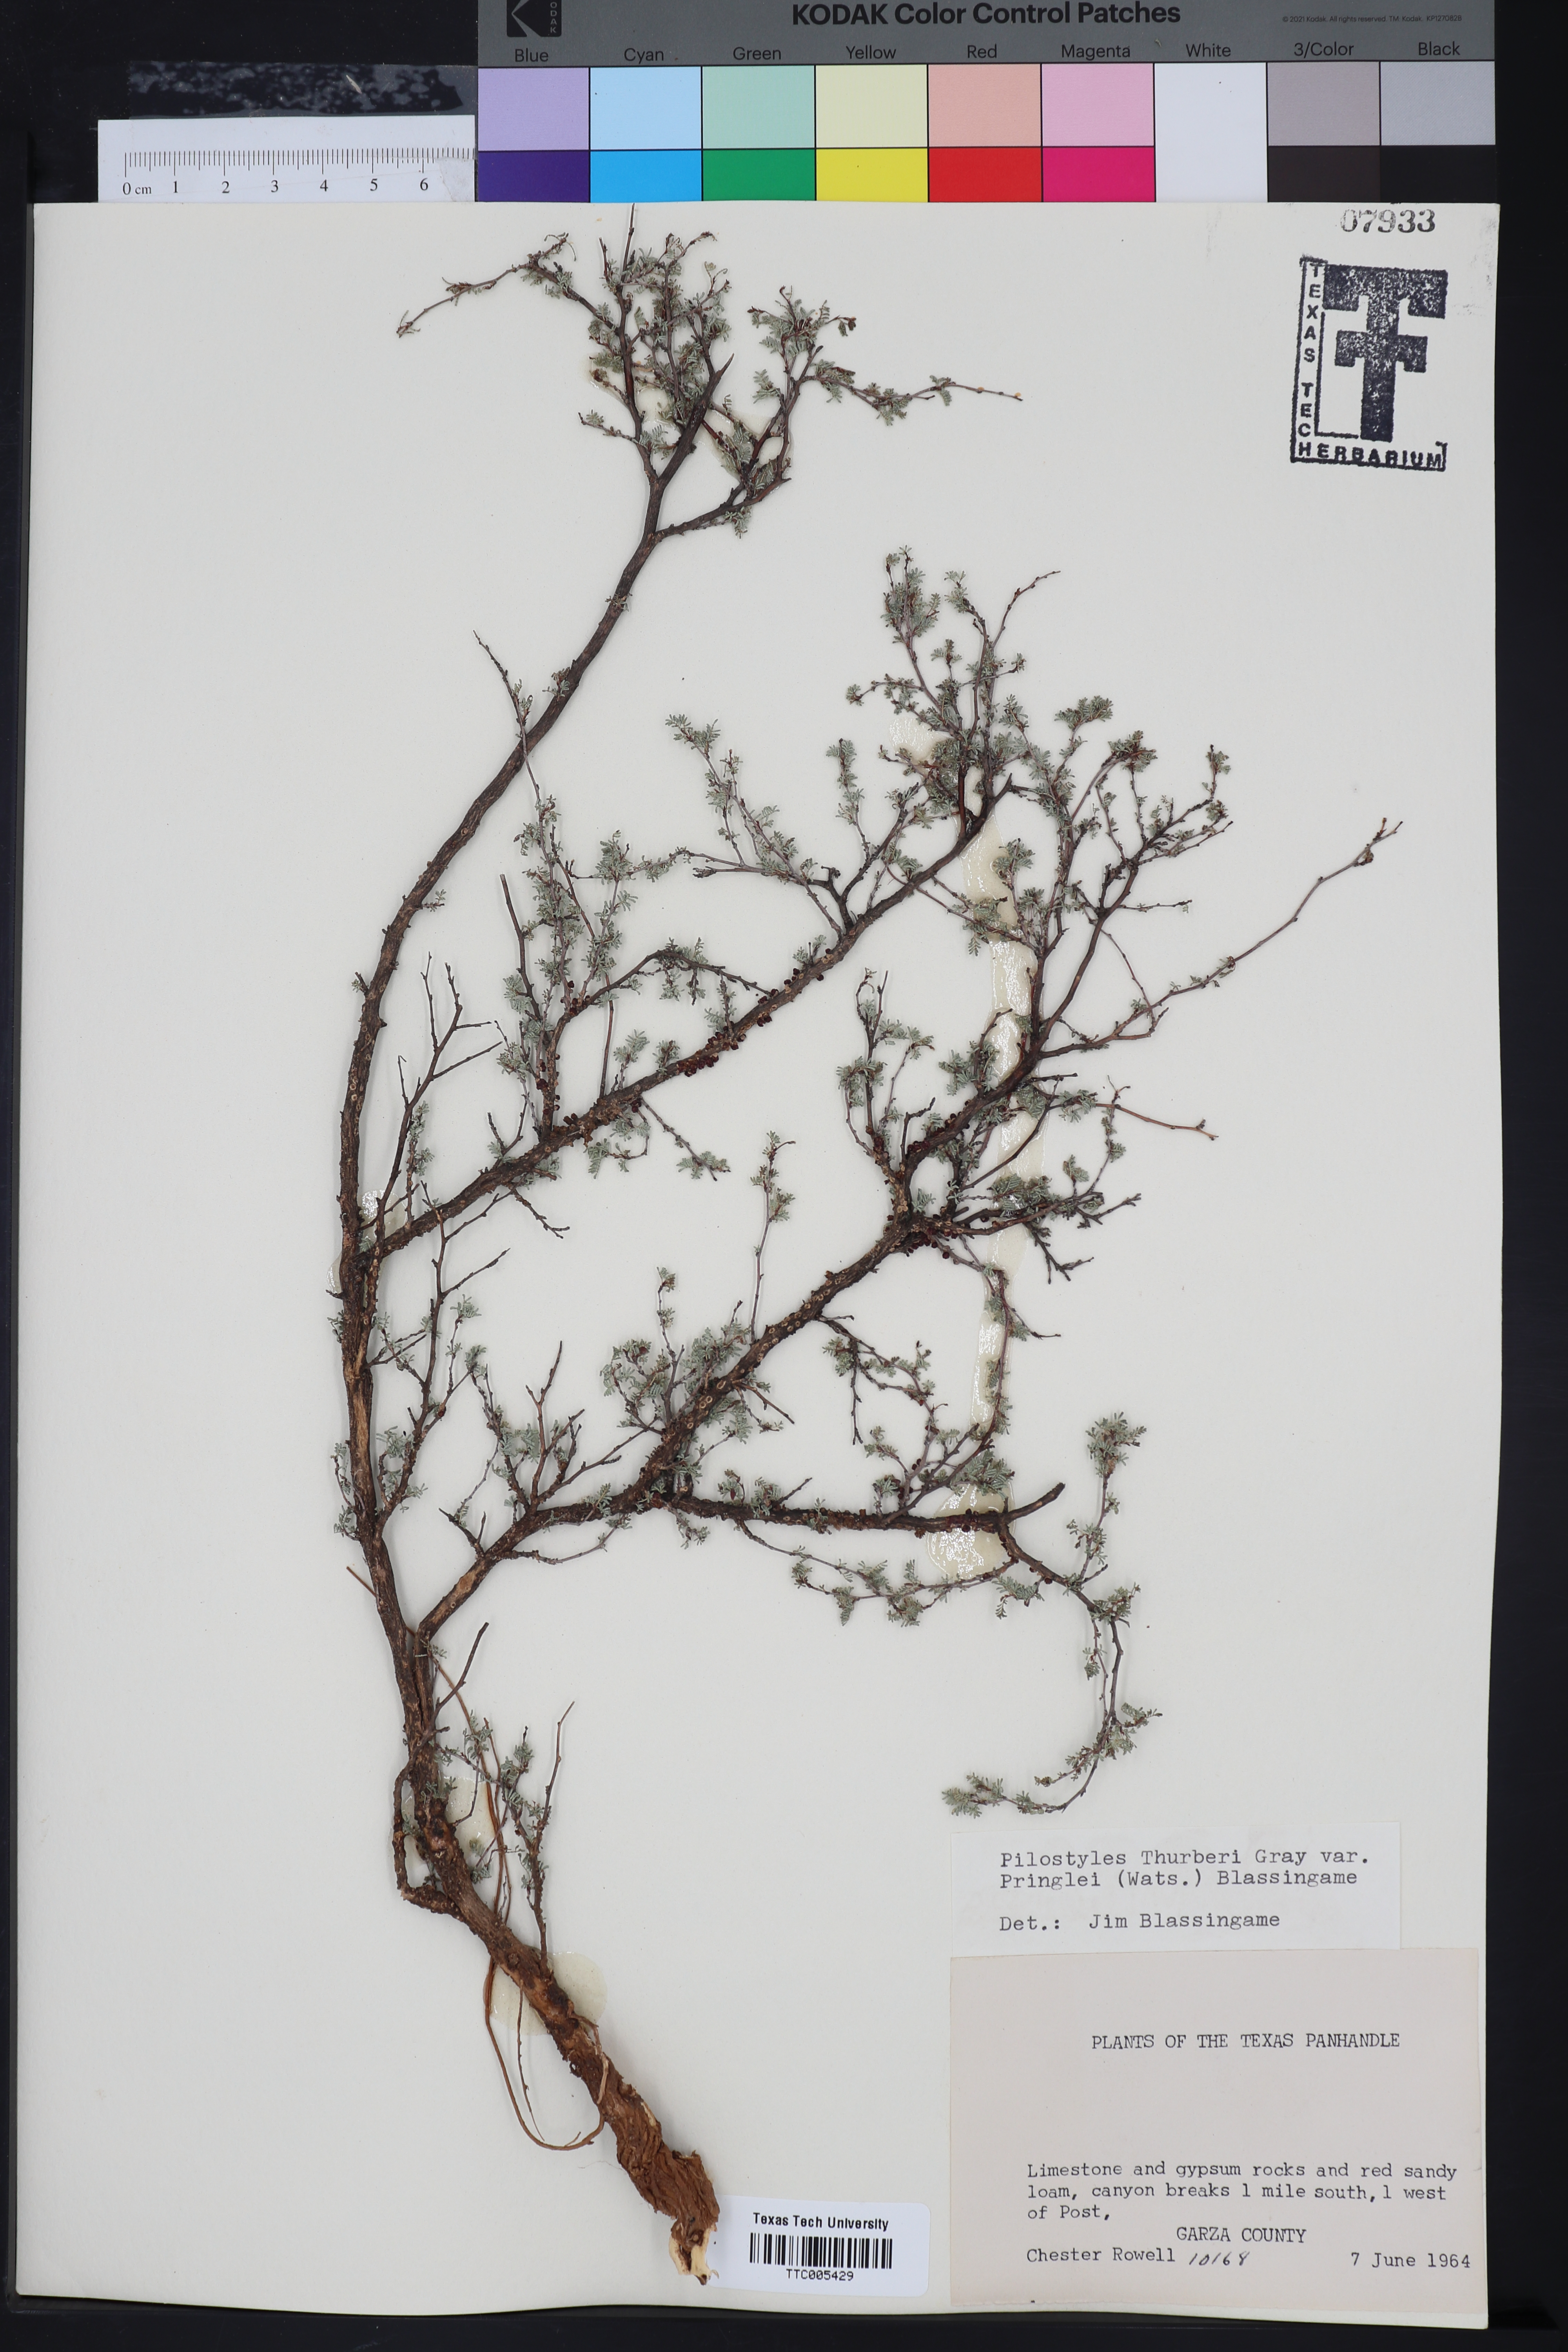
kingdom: Plantae
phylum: Tracheophyta
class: Magnoliopsida
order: Cucurbitales
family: Apodanthaceae
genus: Pilostyles
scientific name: Pilostyles thurberi
